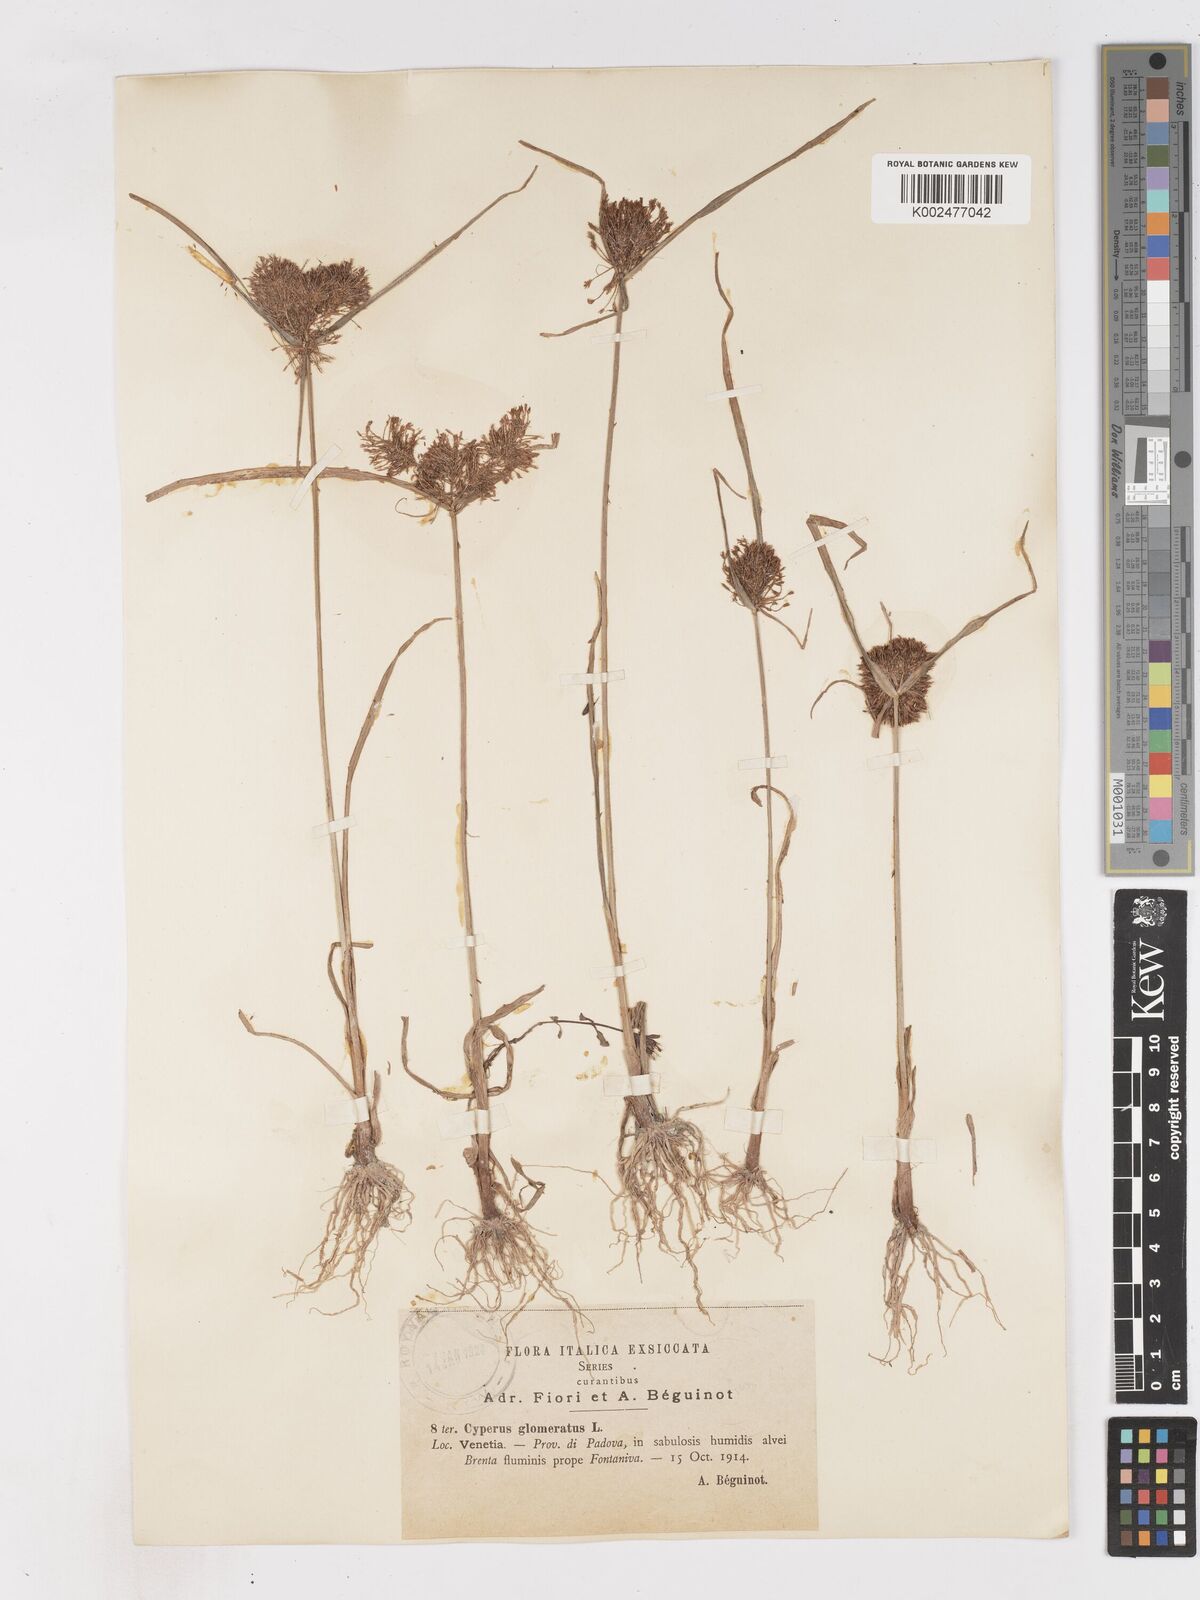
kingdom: Plantae
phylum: Tracheophyta
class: Liliopsida
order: Poales
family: Cyperaceae
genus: Cyperus
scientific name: Cyperus glomeratus
